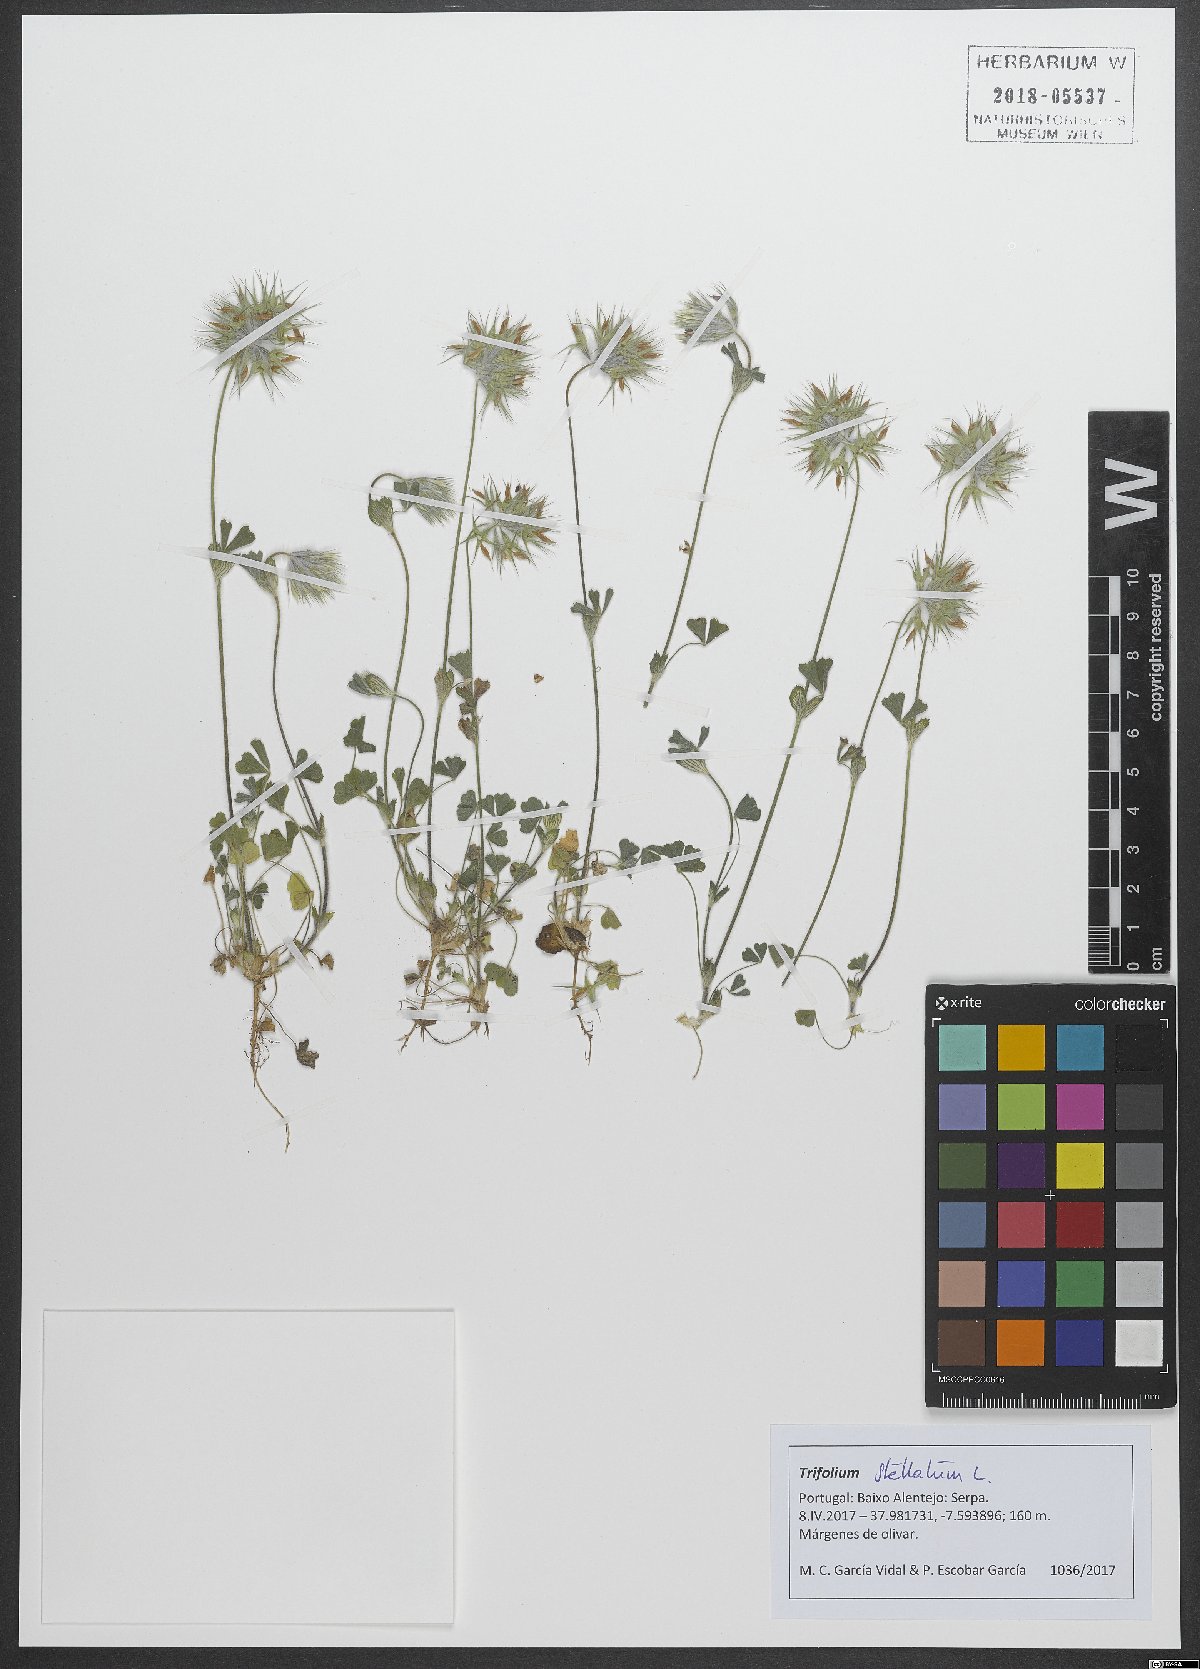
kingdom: Plantae
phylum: Tracheophyta
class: Magnoliopsida
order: Fabales
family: Fabaceae
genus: Trifolium
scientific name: Trifolium stellatum
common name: Starry clover
